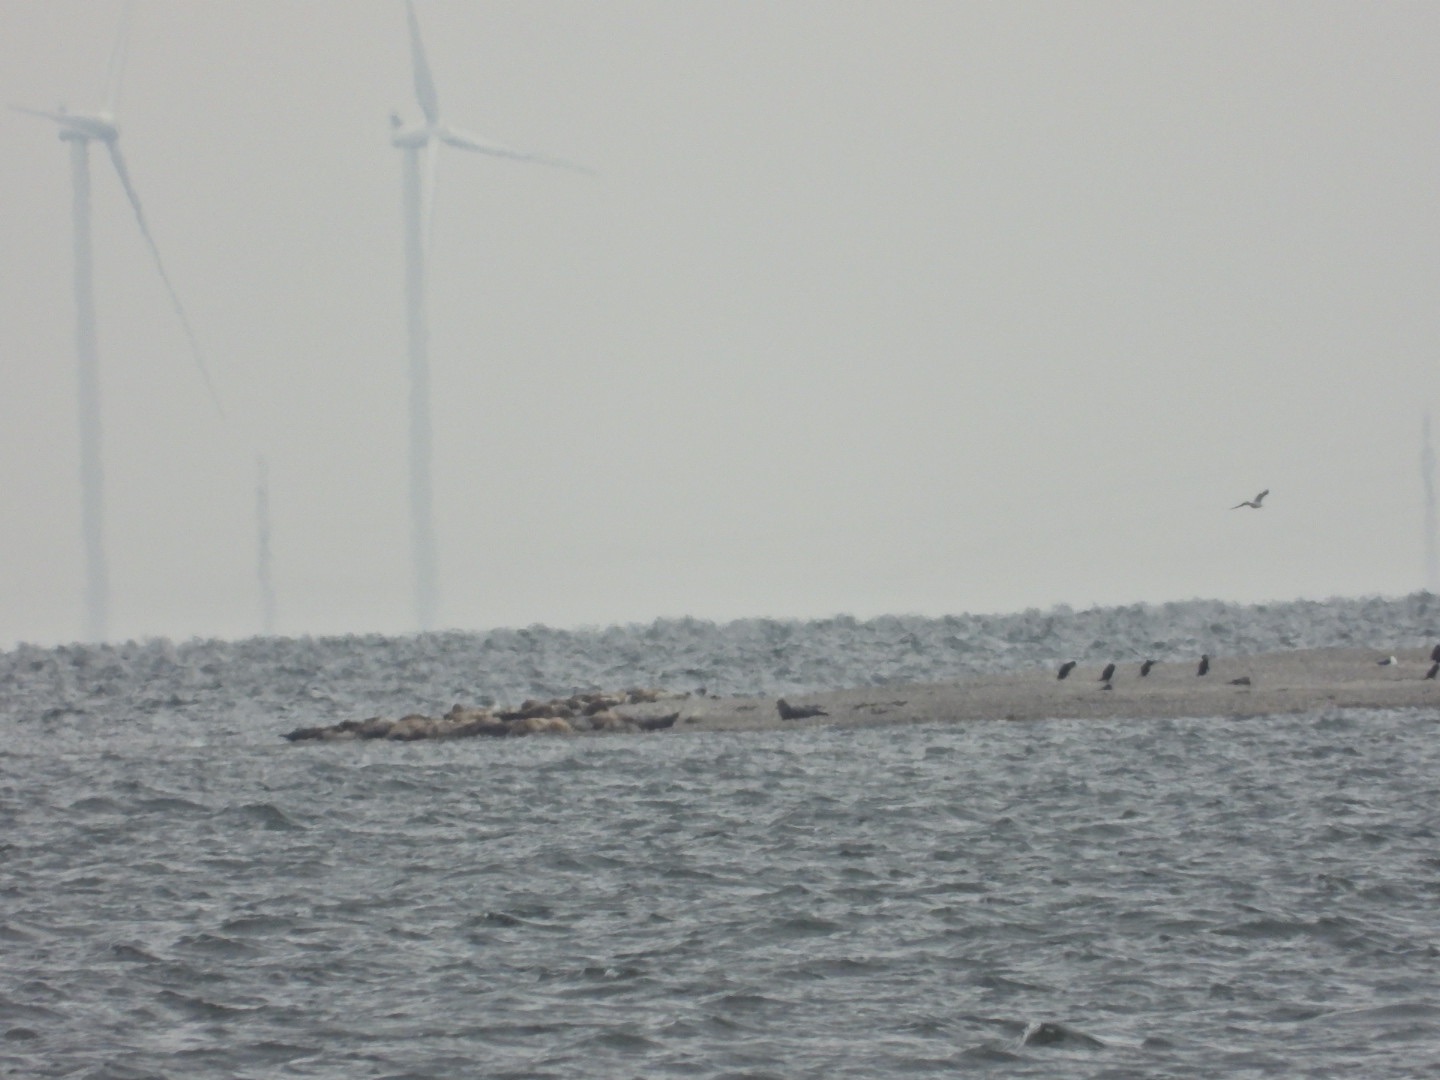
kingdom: Animalia
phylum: Chordata
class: Mammalia
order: Carnivora
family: Phocidae
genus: Phoca
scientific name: Phoca vitulina
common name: Spættet sæl
